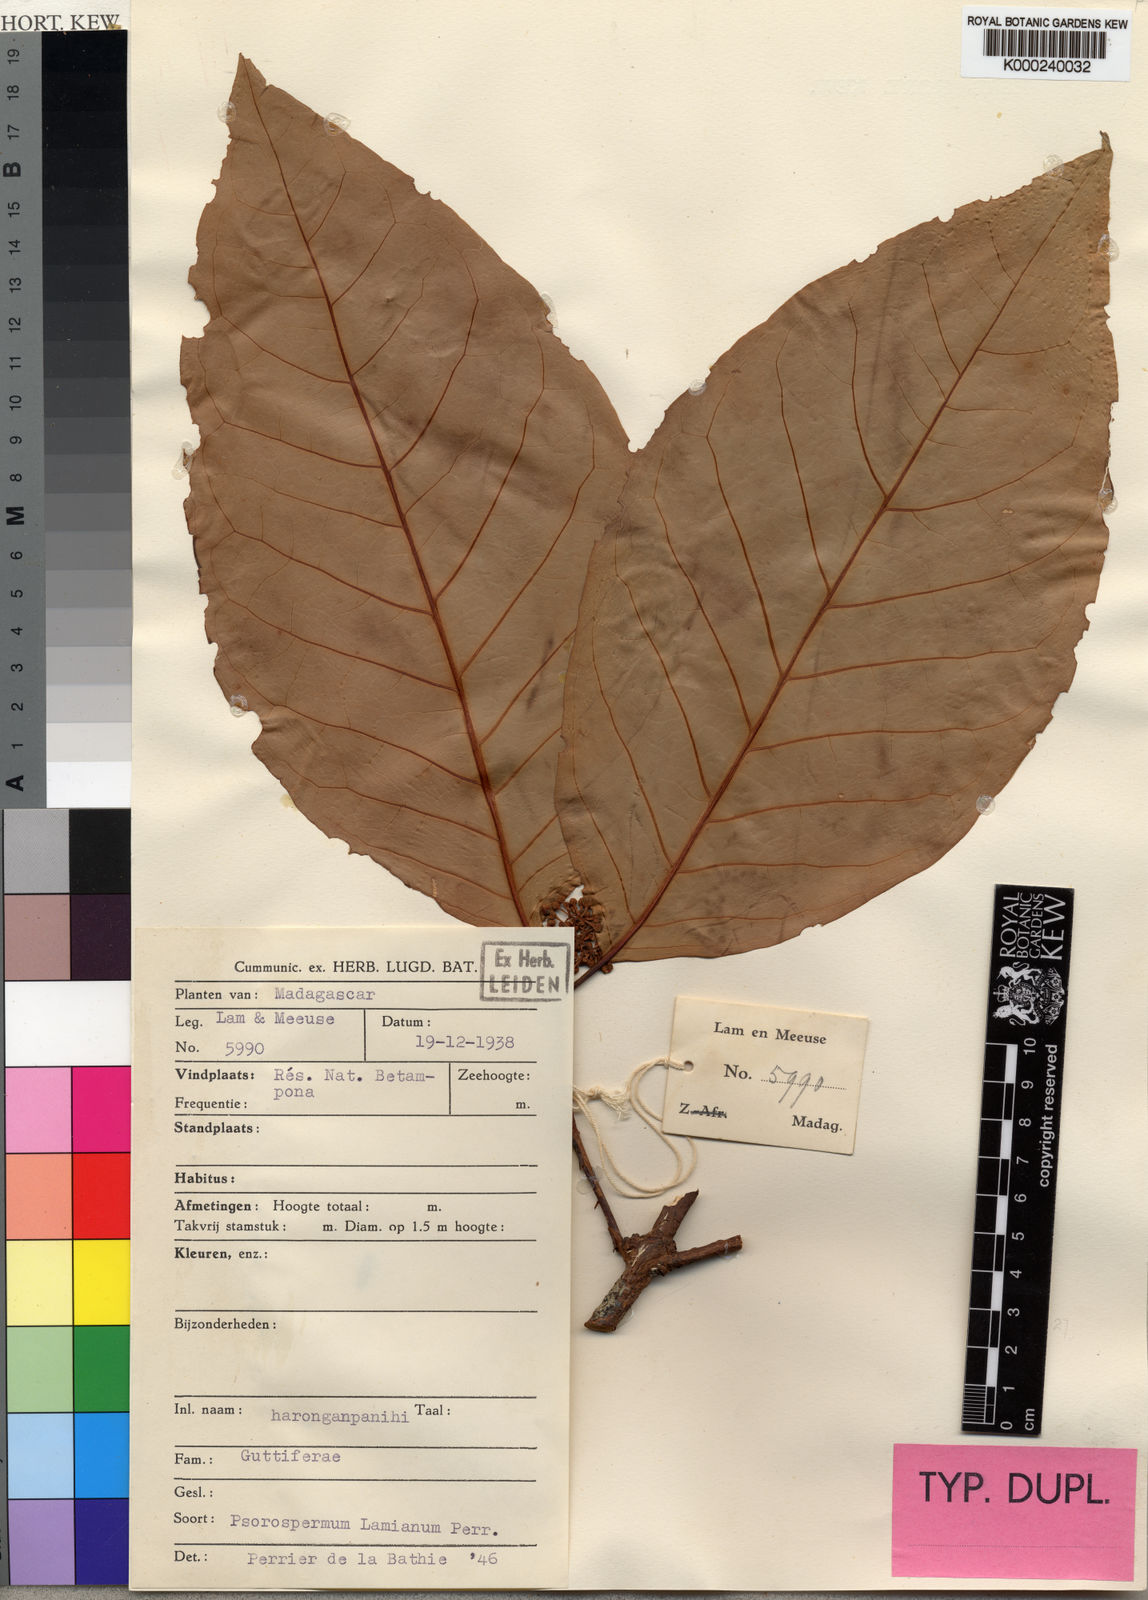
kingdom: Plantae
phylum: Tracheophyta
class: Magnoliopsida
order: Malpighiales
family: Hypericaceae
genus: Psorospermum
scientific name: Psorospermum lamianum
